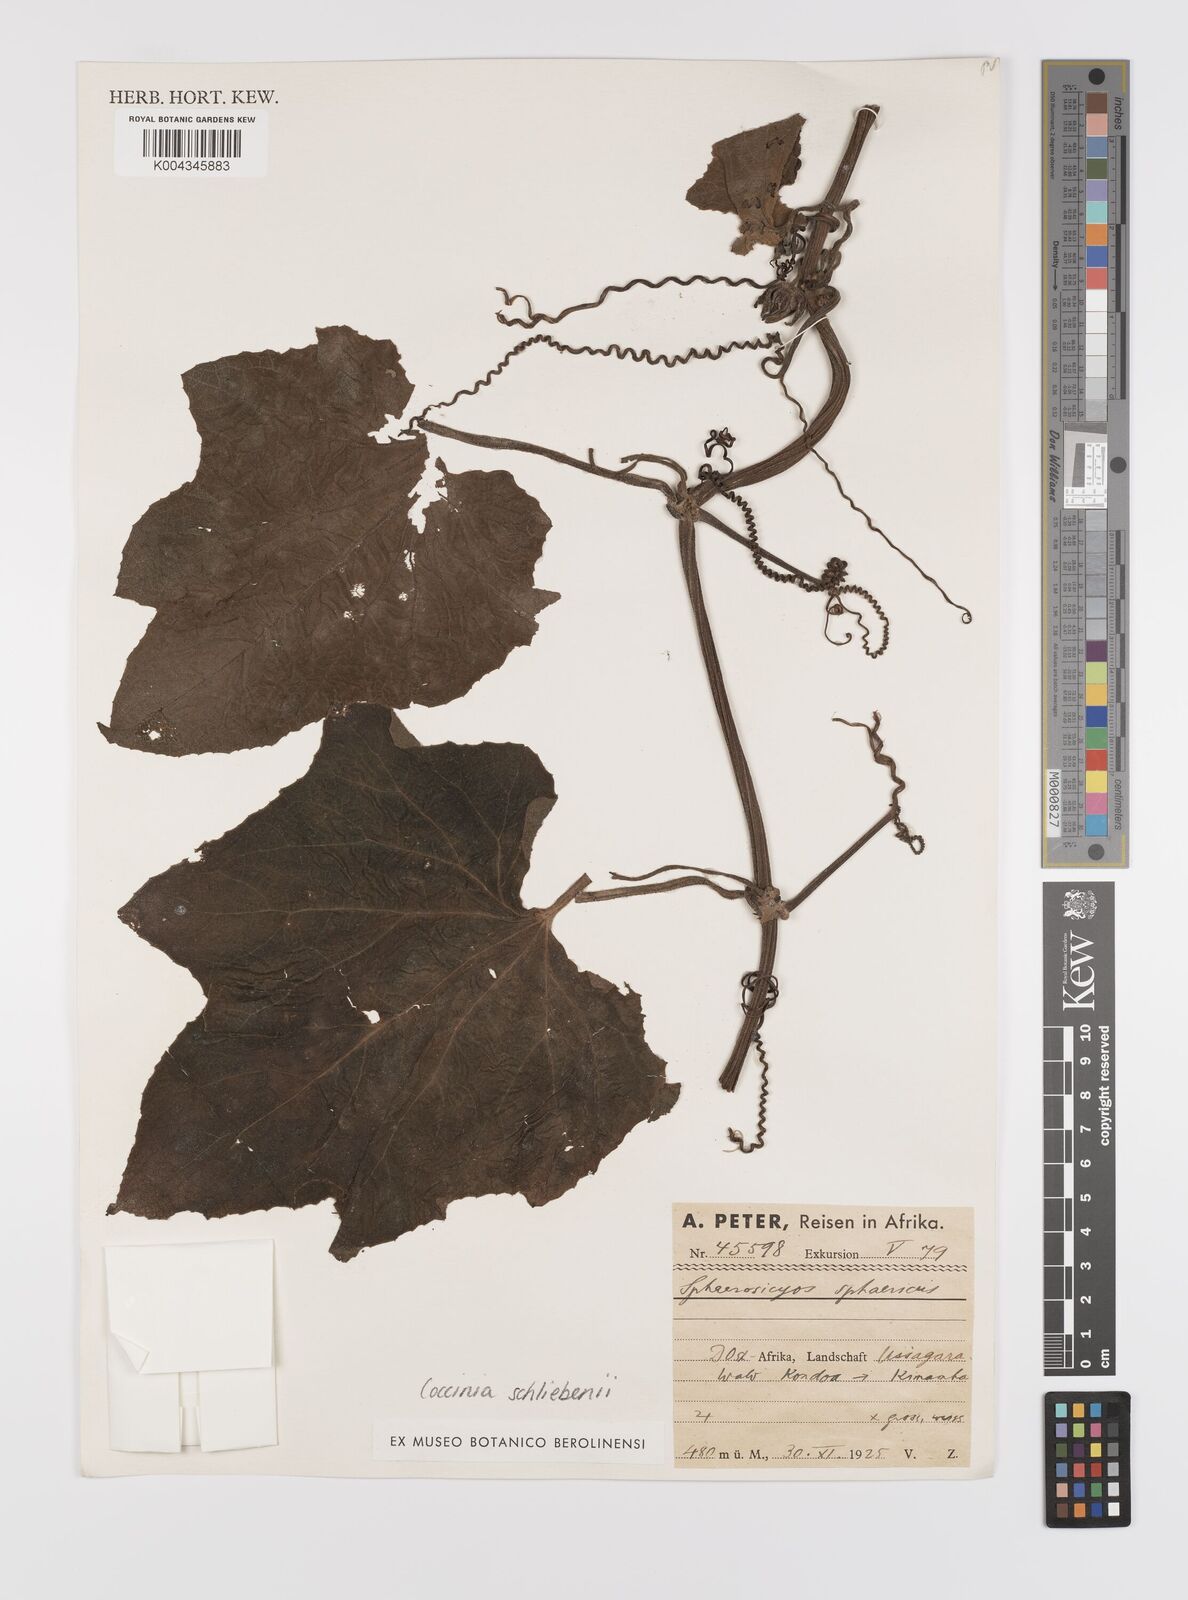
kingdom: Plantae
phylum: Tracheophyta
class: Magnoliopsida
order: Cucurbitales
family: Cucurbitaceae
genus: Coccinia
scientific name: Coccinia schliebenii
